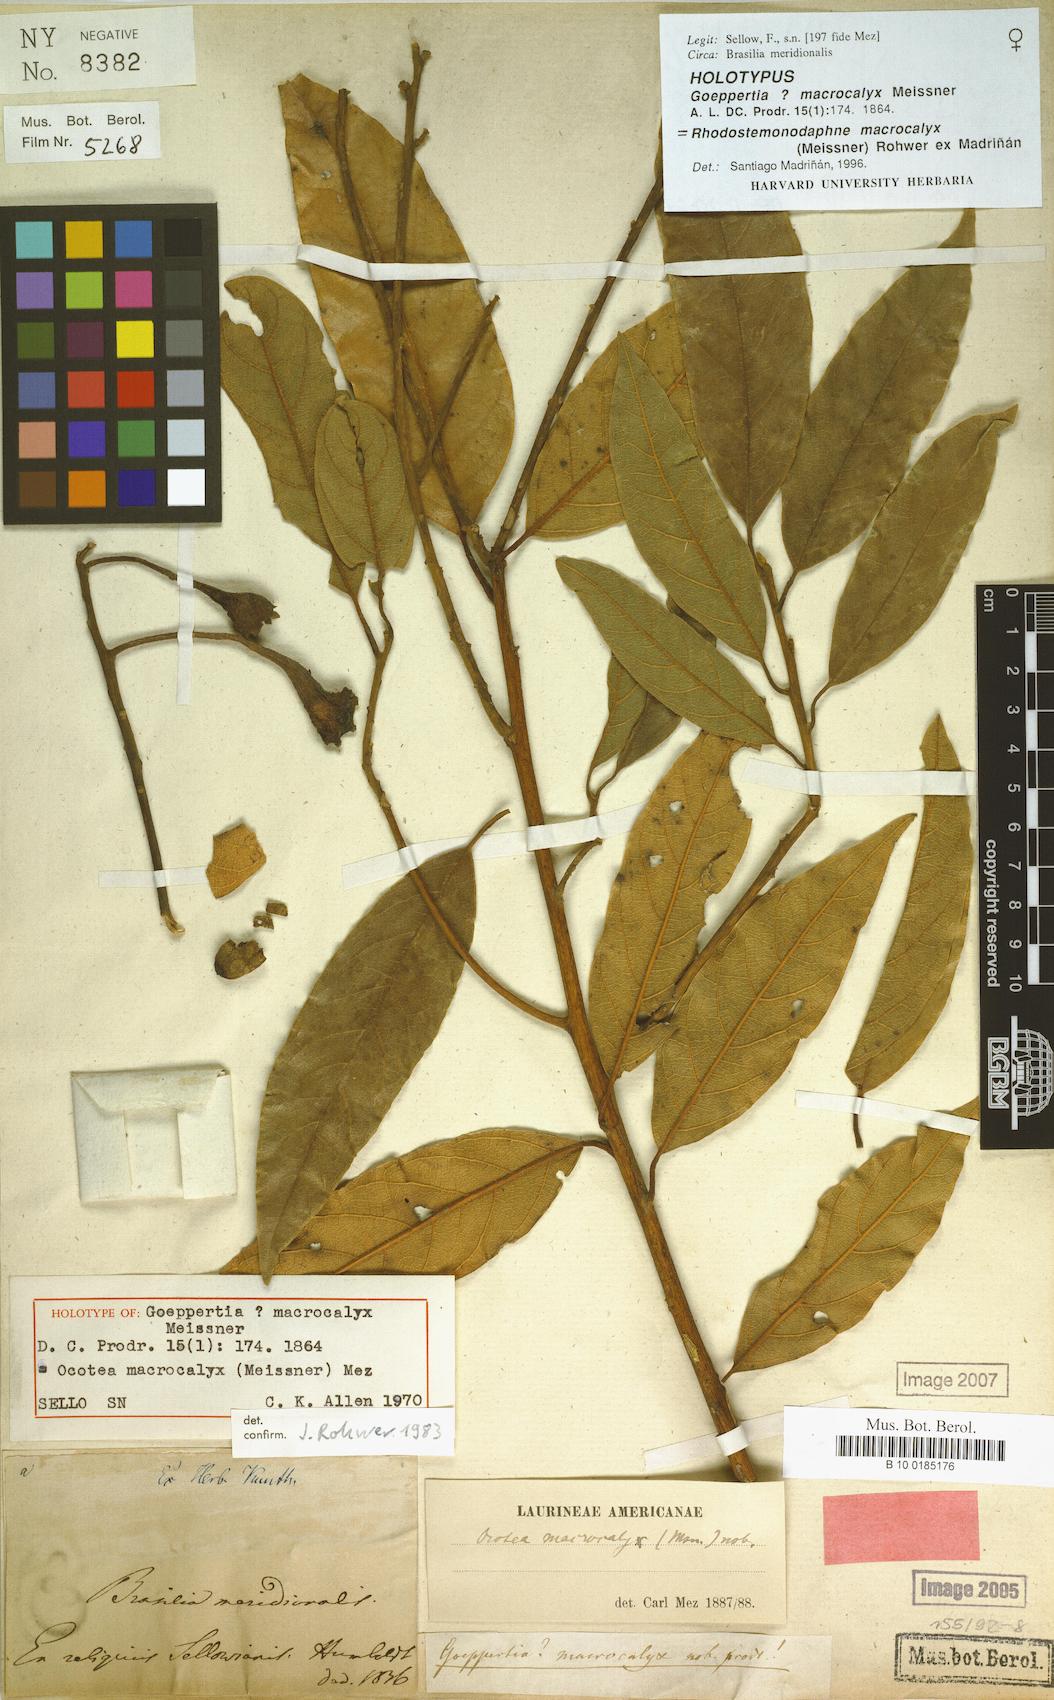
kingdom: Plantae
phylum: Tracheophyta
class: Magnoliopsida
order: Laurales
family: Lauraceae
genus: Rhodostemonodaphne
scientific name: Rhodostemonodaphne macrocalyx
